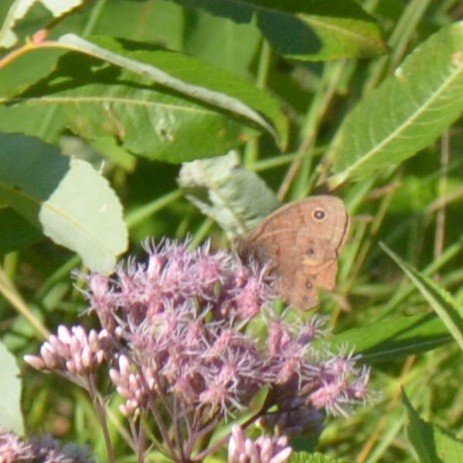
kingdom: Animalia
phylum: Arthropoda
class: Insecta
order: Lepidoptera
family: Nymphalidae
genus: Cercyonis
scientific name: Cercyonis pegala
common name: Common Wood-Nymph
